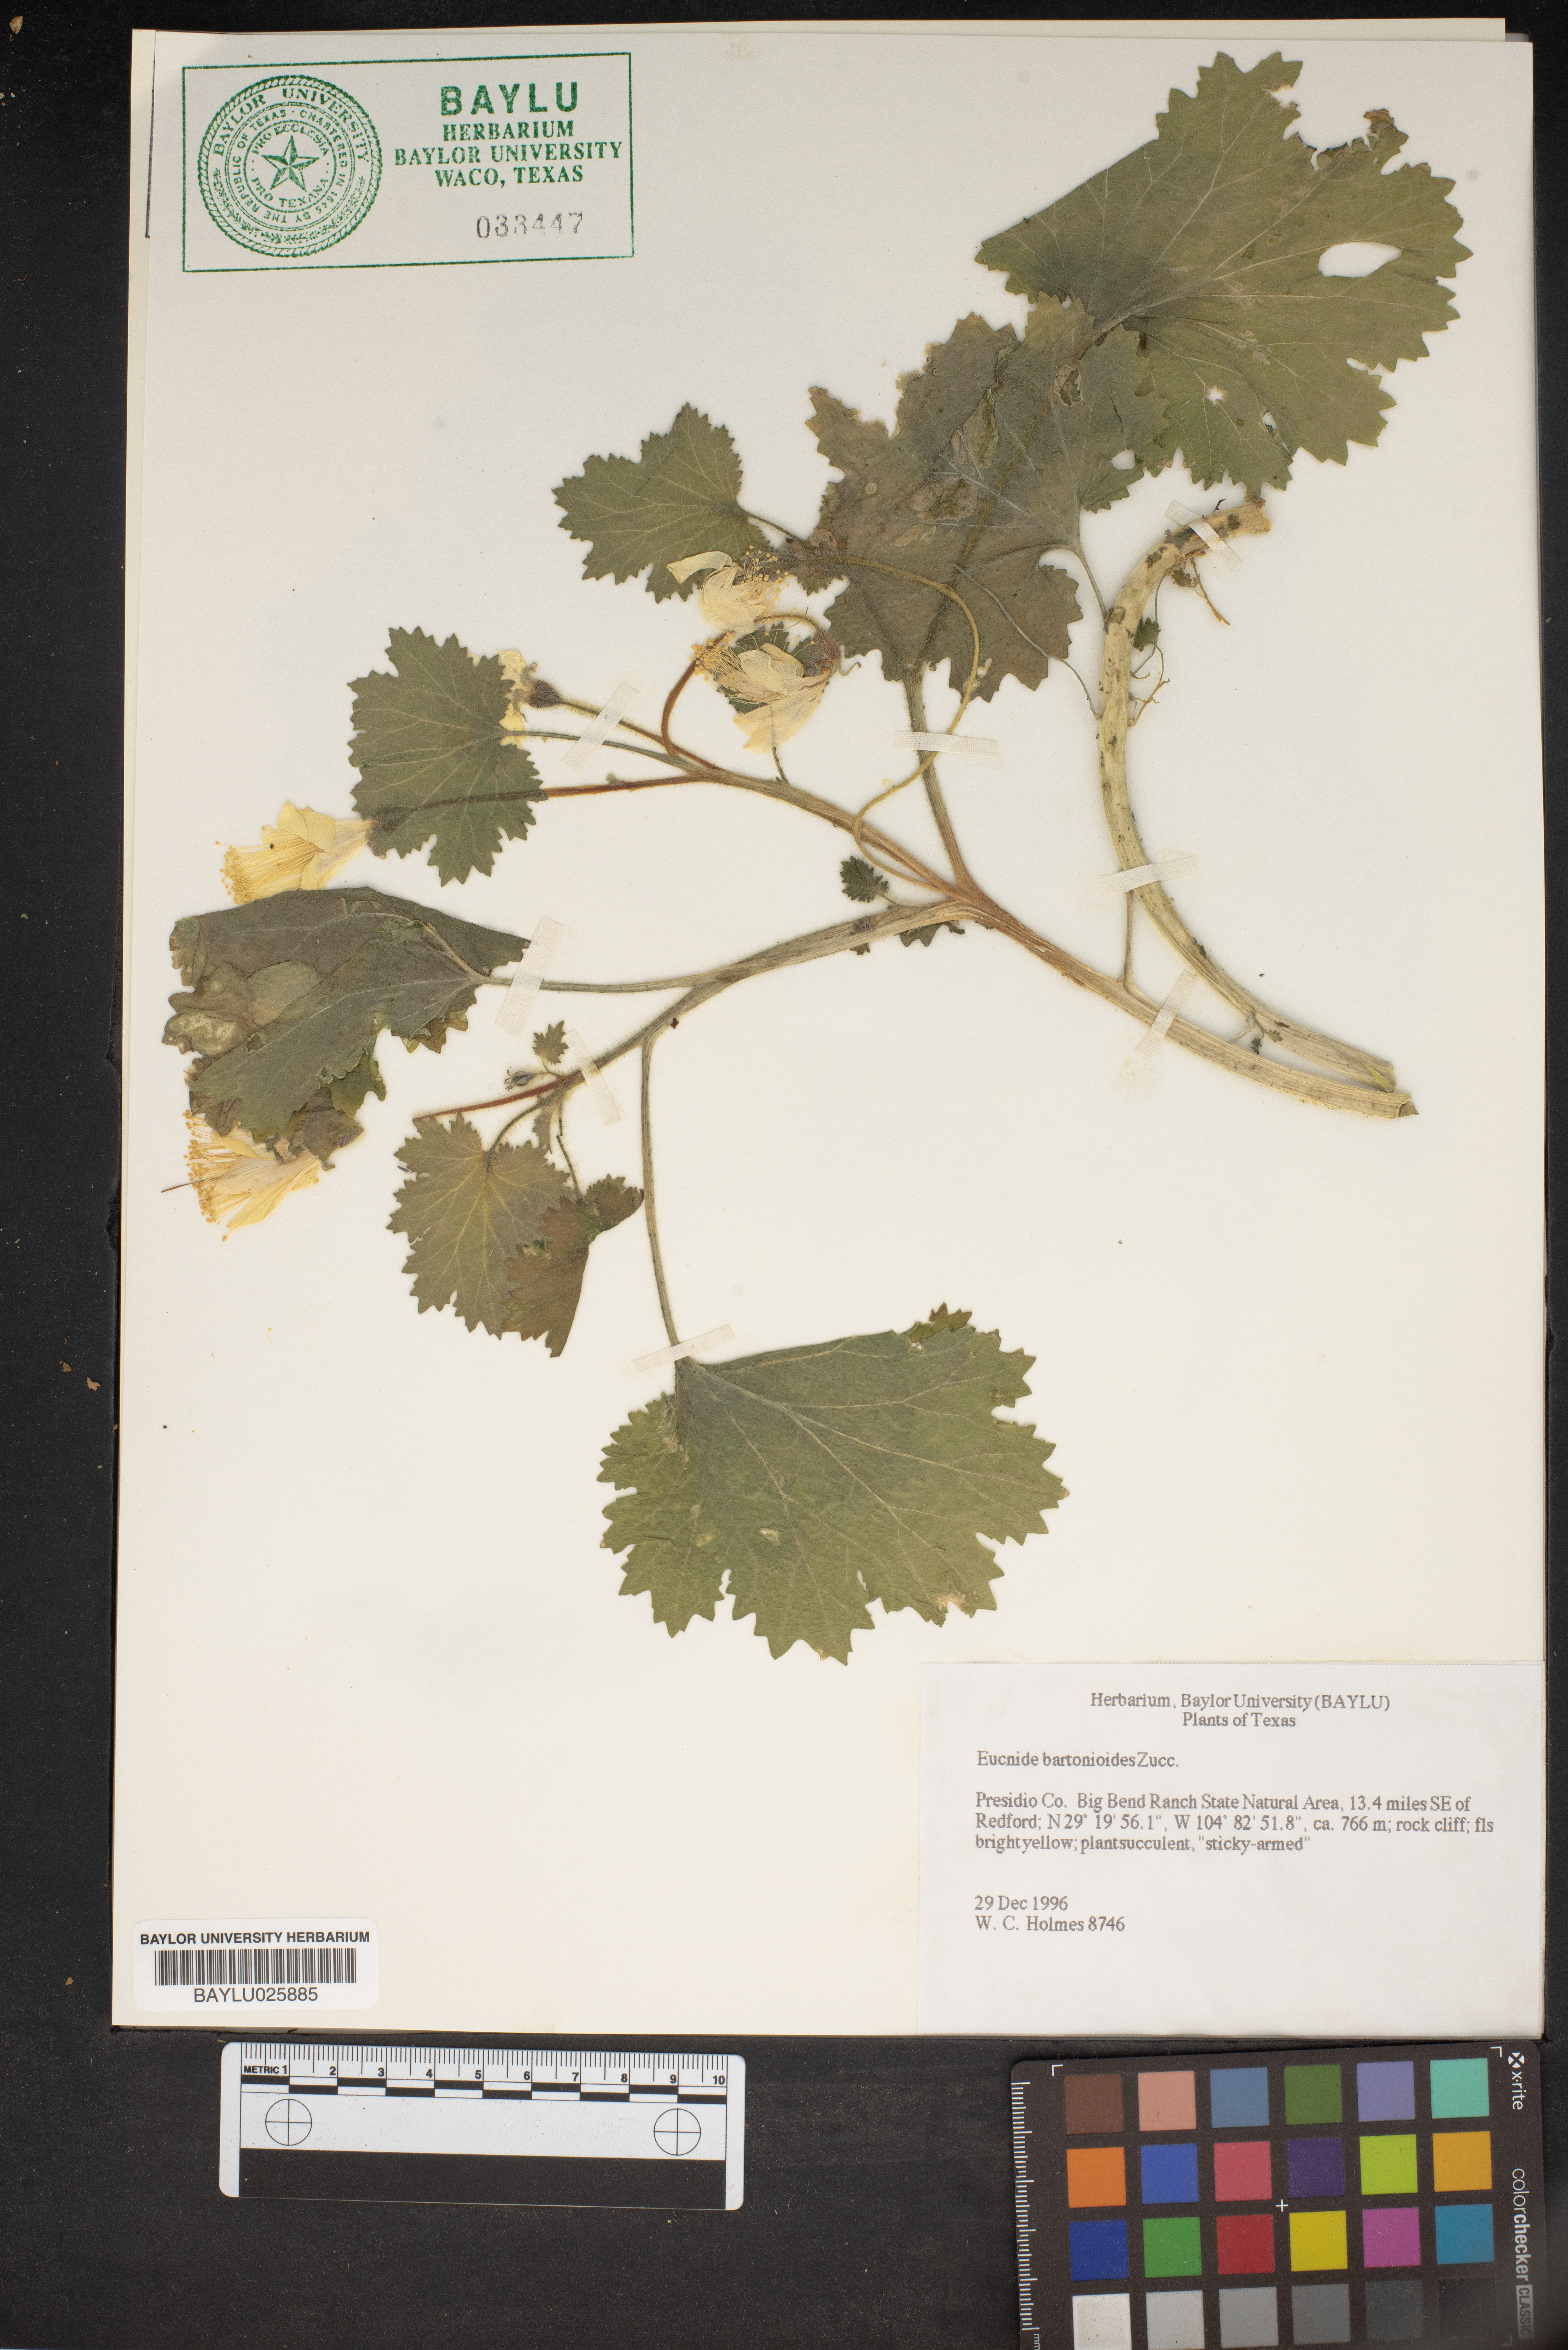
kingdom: Plantae
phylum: Tracheophyta
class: Magnoliopsida
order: Cornales
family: Loasaceae
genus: Eucnide
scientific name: Eucnide bartonioides
